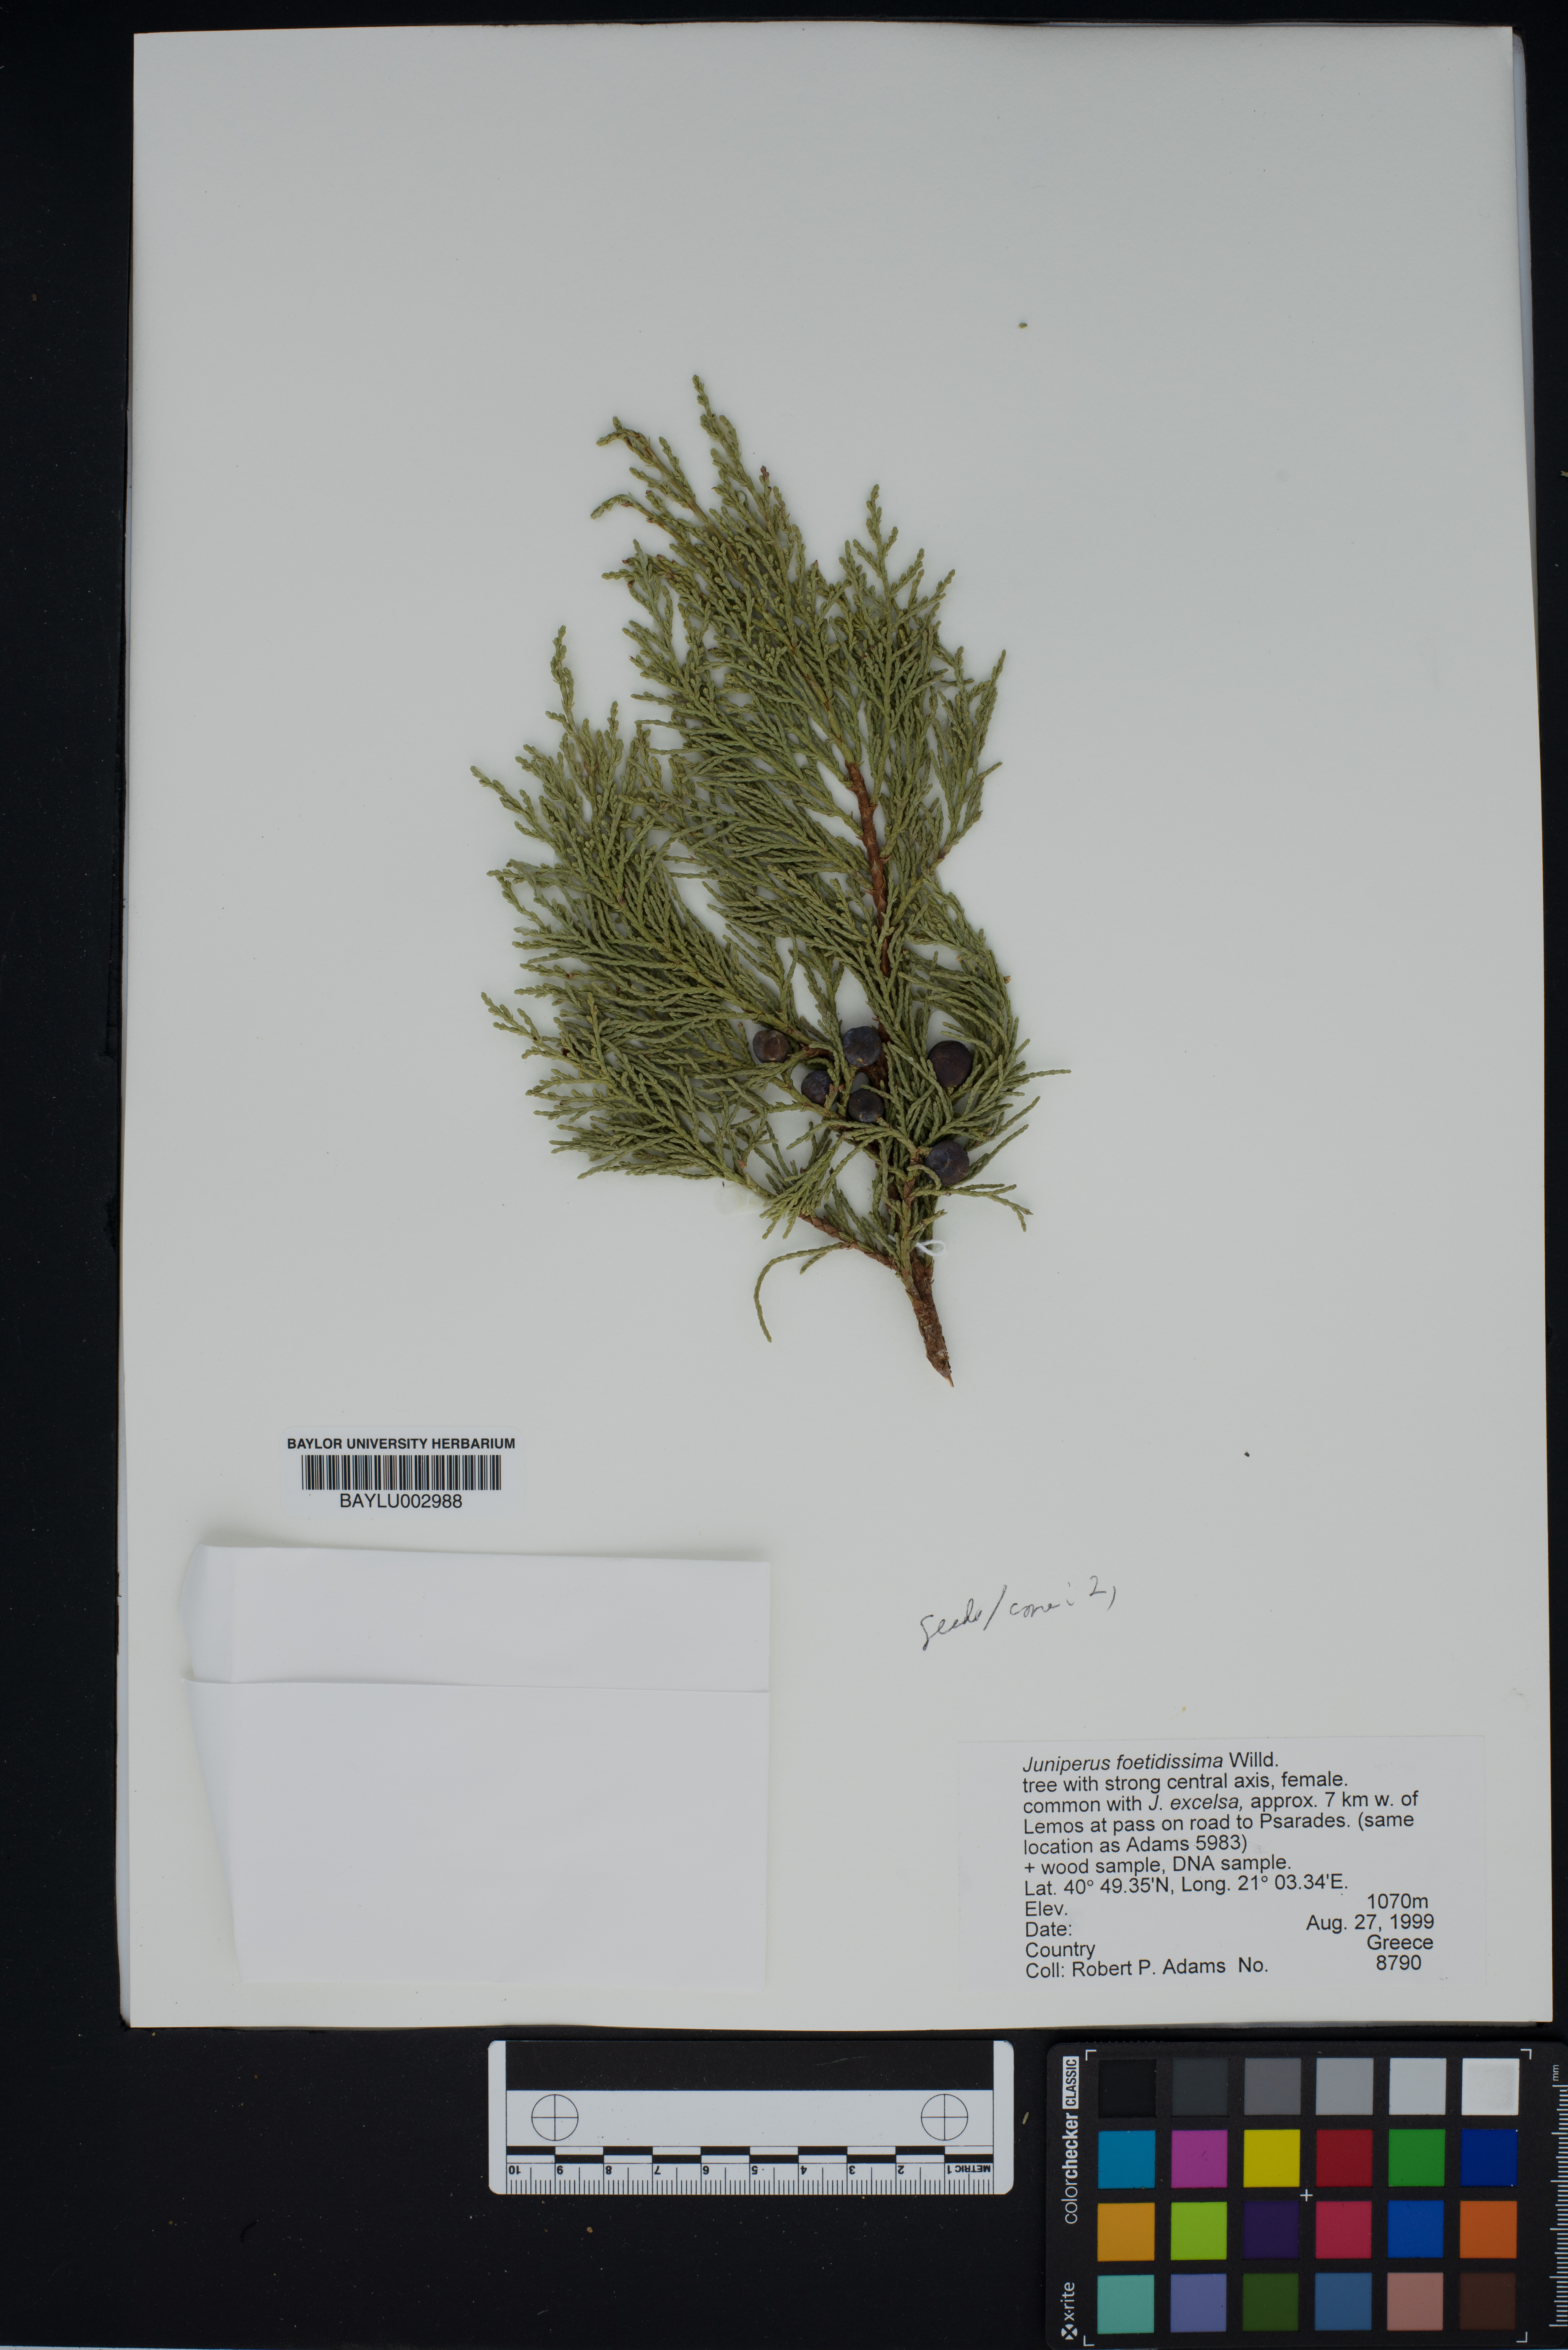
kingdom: Plantae
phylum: Tracheophyta
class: Pinopsida
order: Pinales
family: Cupressaceae
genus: Juniperus
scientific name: Juniperus foetidissima
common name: Stinking juniper
